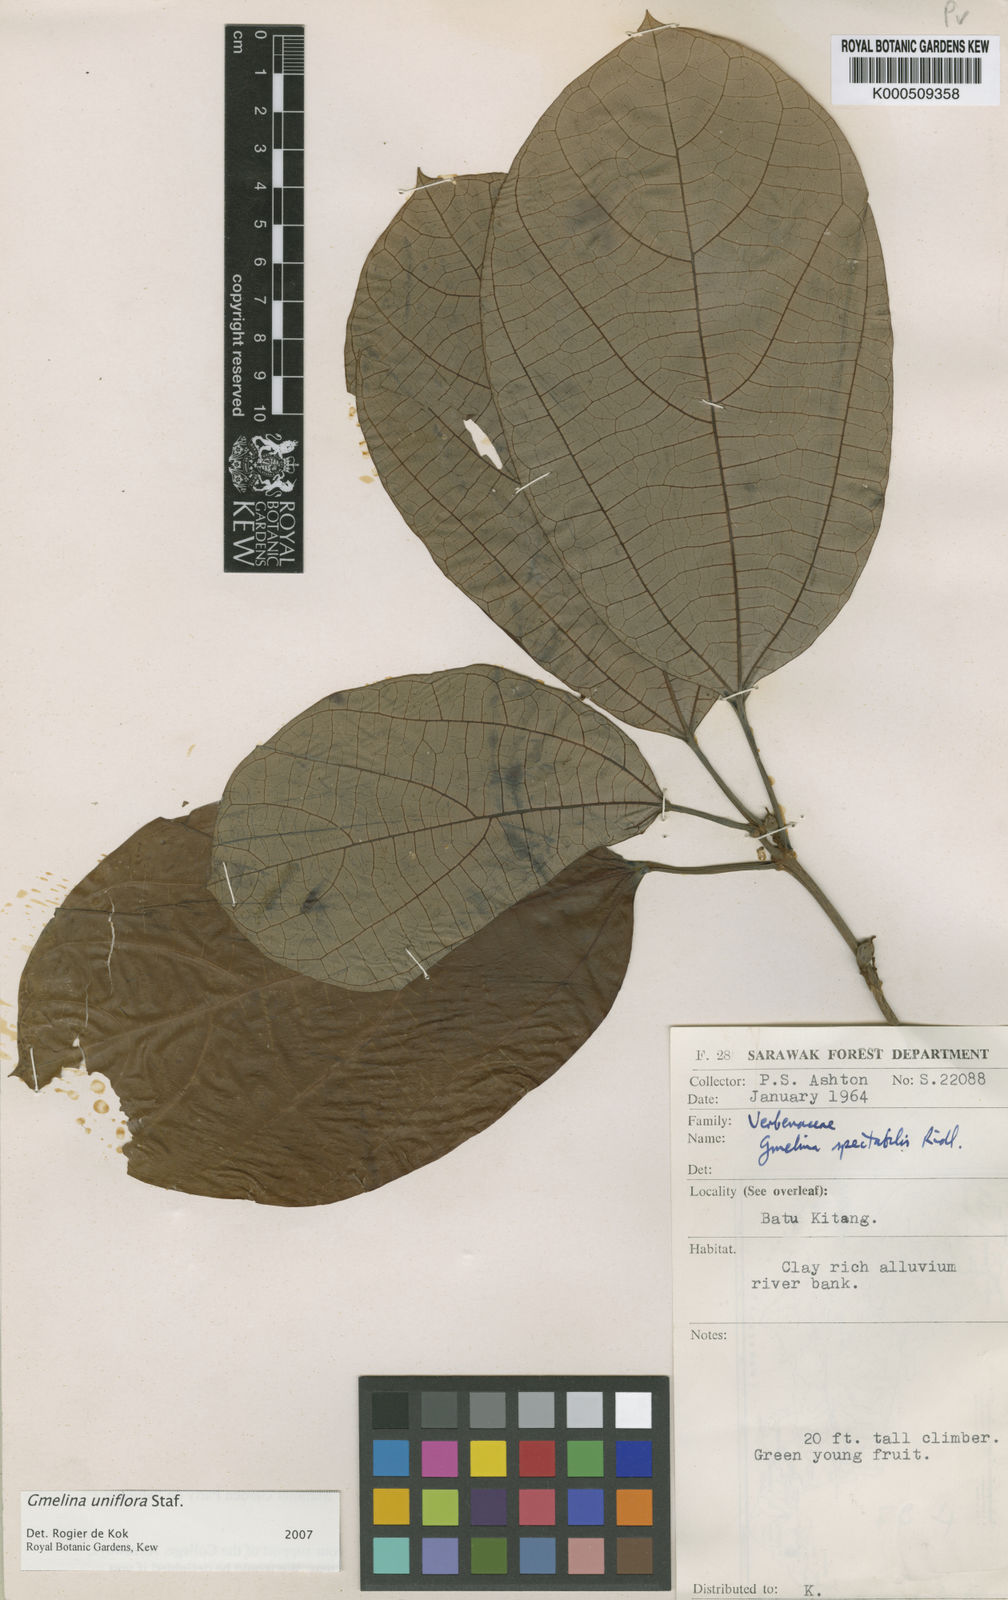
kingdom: Plantae
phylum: Tracheophyta
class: Magnoliopsida
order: Lamiales
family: Lamiaceae
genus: Gmelina
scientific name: Gmelina uniflora
